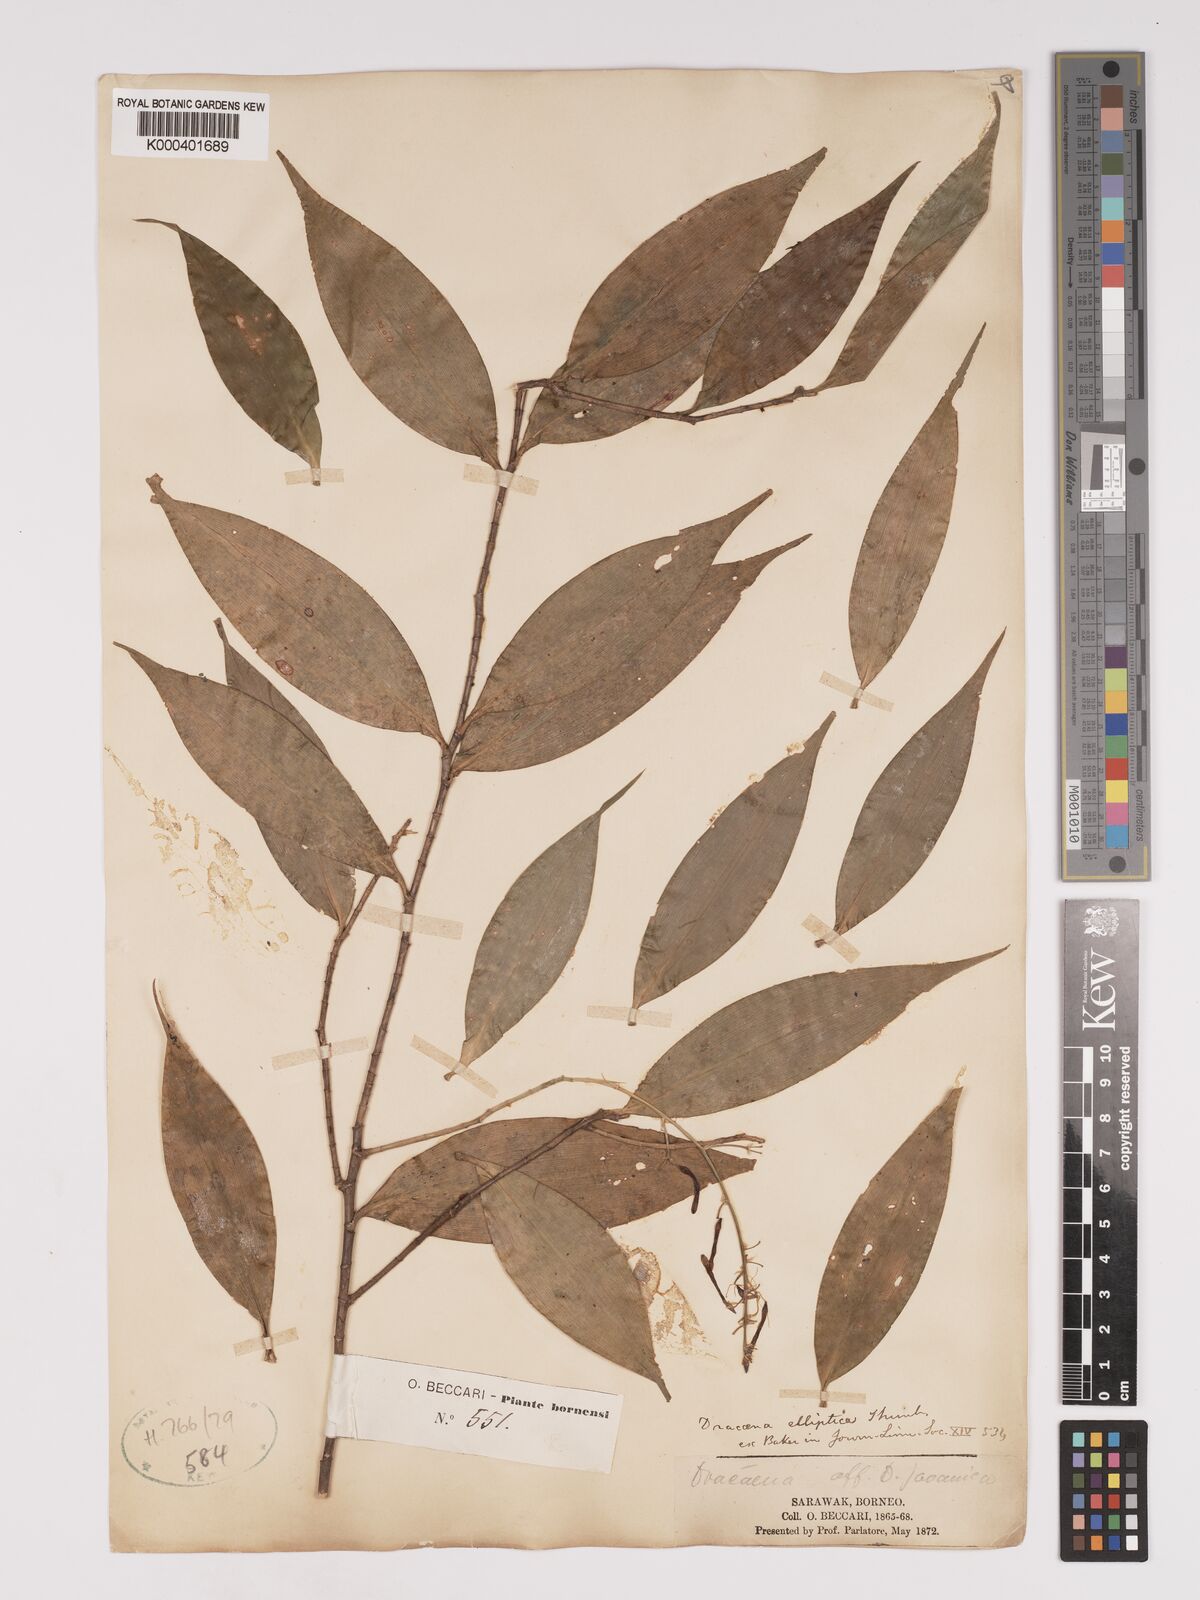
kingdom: Plantae
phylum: Tracheophyta
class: Liliopsida
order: Asparagales
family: Asparagaceae
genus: Dracaena
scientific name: Dracaena elliptica
